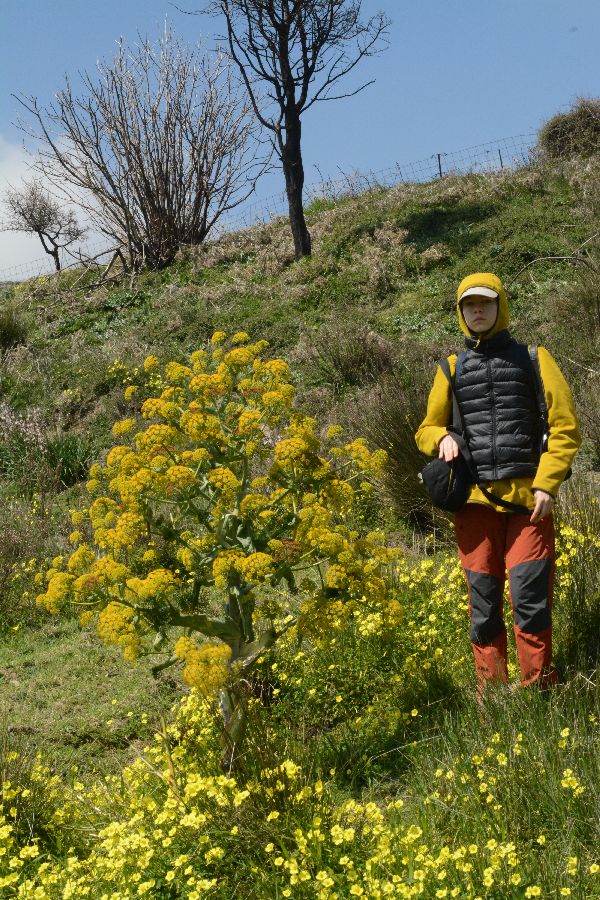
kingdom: Plantae
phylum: Tracheophyta
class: Magnoliopsida
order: Apiales
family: Apiaceae
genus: Ferula
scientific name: Ferula communis
